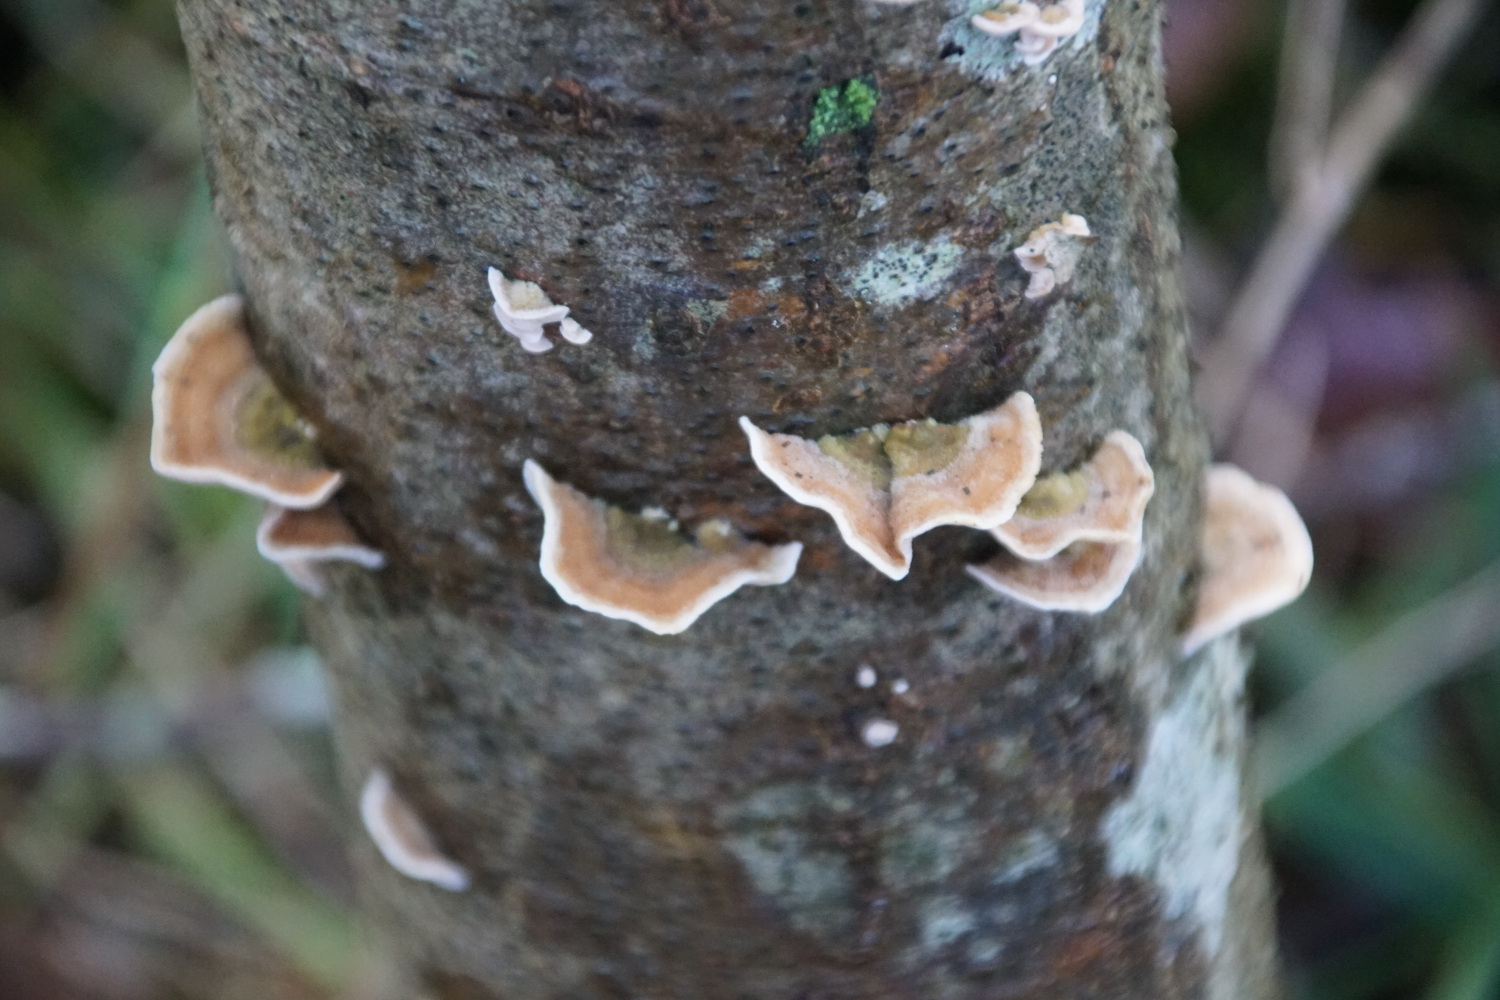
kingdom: Fungi
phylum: Basidiomycota
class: Agaricomycetes
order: Russulales
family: Stereaceae
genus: Stereum
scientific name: Stereum subtomentosum
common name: smuk lædersvamp
